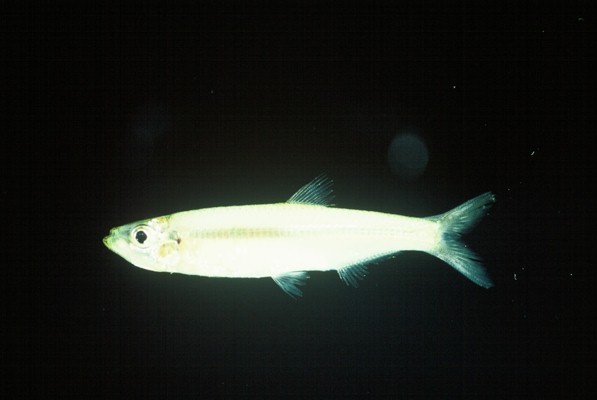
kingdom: Animalia
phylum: Chordata
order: Clupeiformes
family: Clupeidae
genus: Gilchristella
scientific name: Gilchristella aestuaria
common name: Estuarine round-herring
